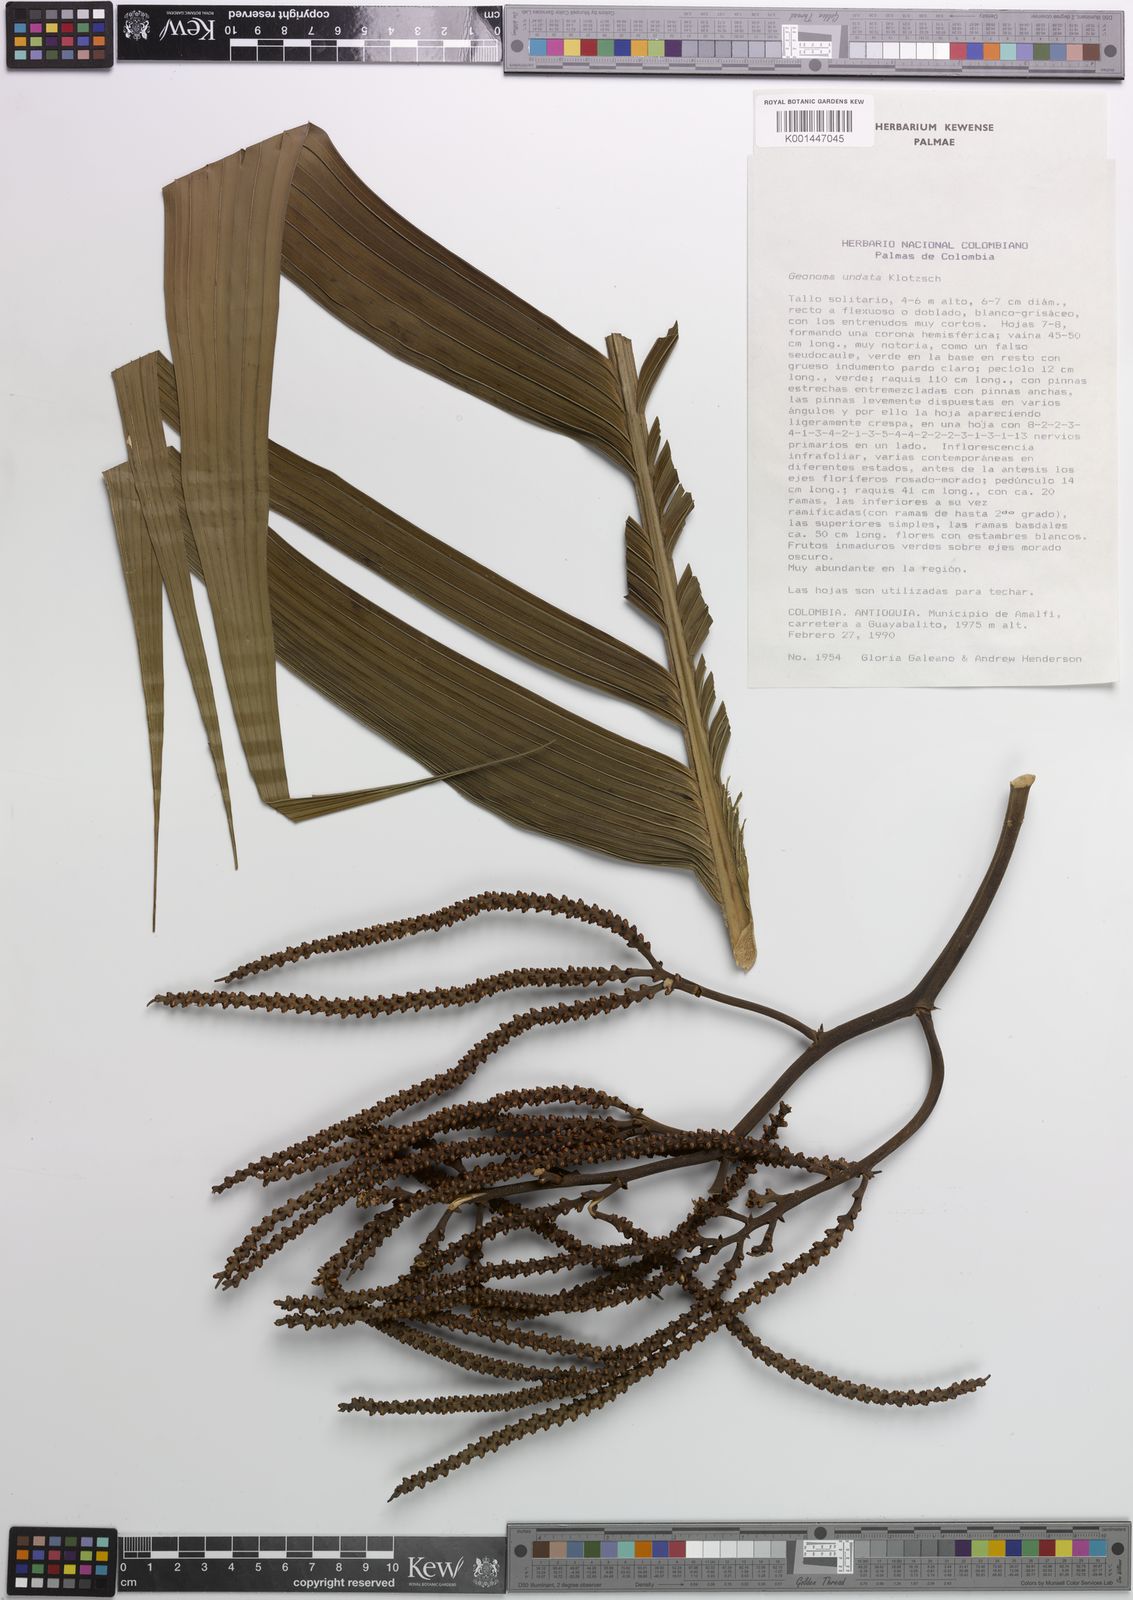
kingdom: Plantae
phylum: Tracheophyta
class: Liliopsida
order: Arecales
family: Arecaceae
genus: Geonoma
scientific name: Geonoma undata
